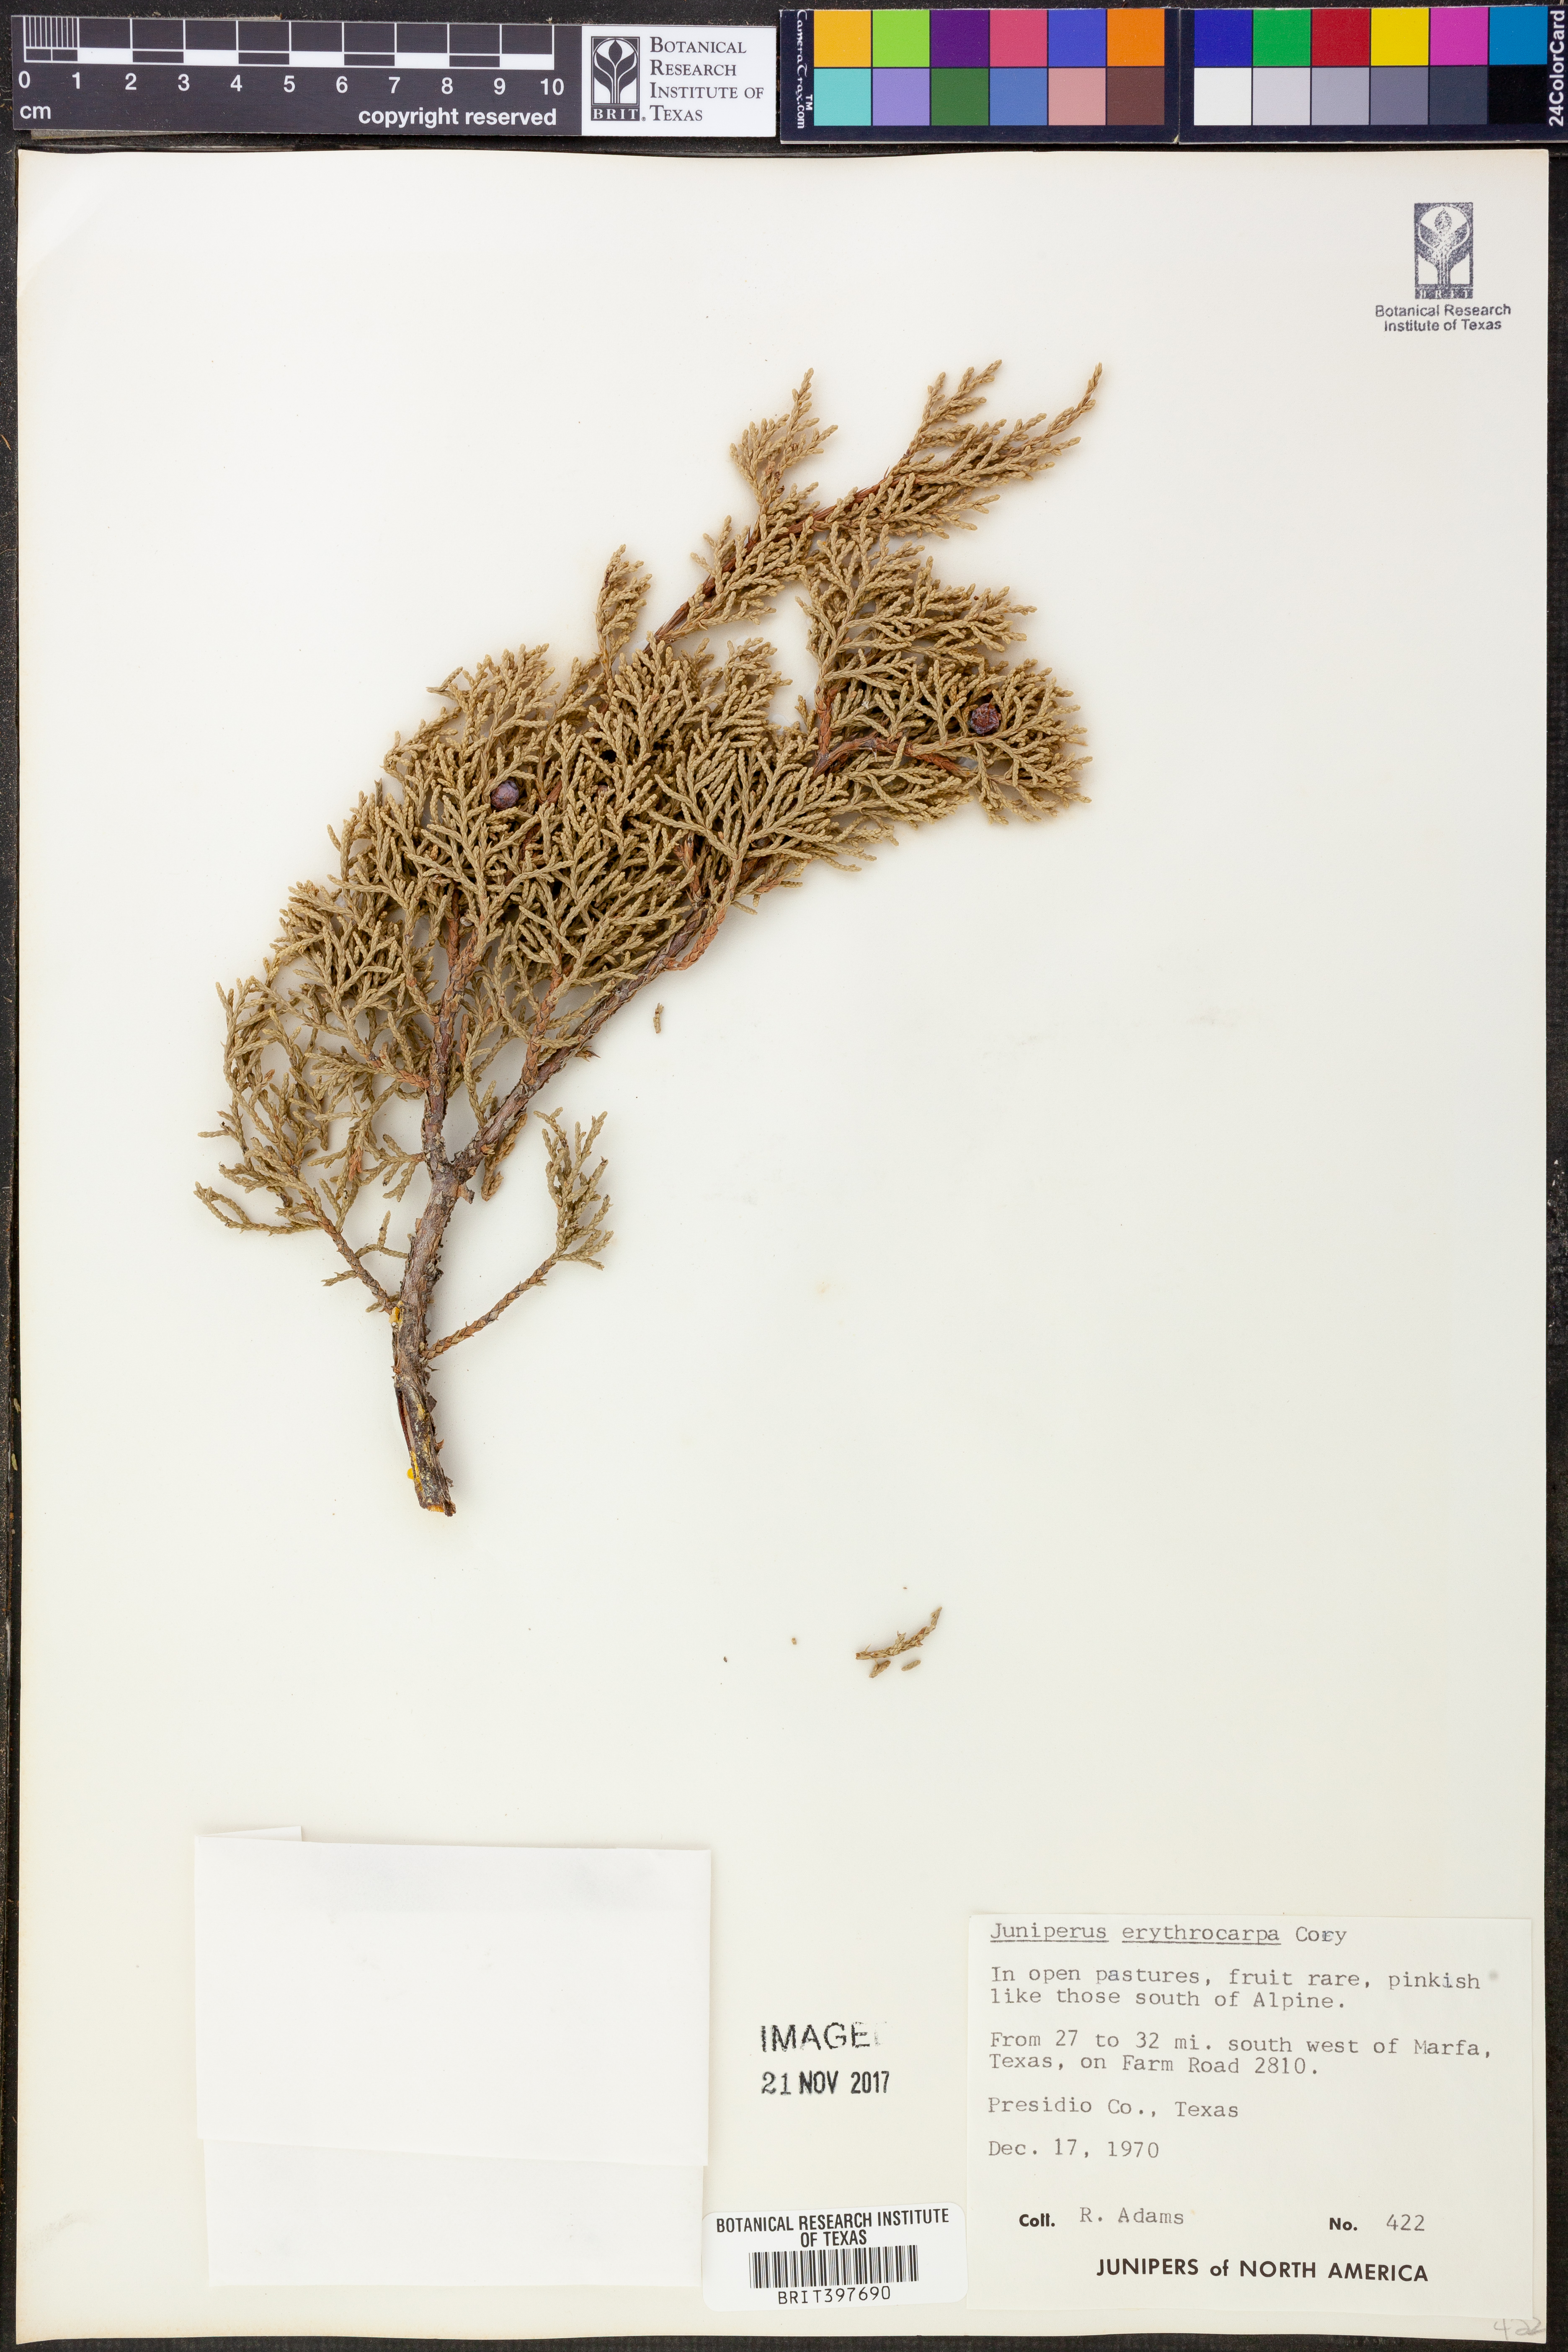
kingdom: Plantae
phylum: Tracheophyta
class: Pinopsida
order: Pinales
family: Cupressaceae
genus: Juniperus
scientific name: Juniperus pinchotii
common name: Pinchot juniper
